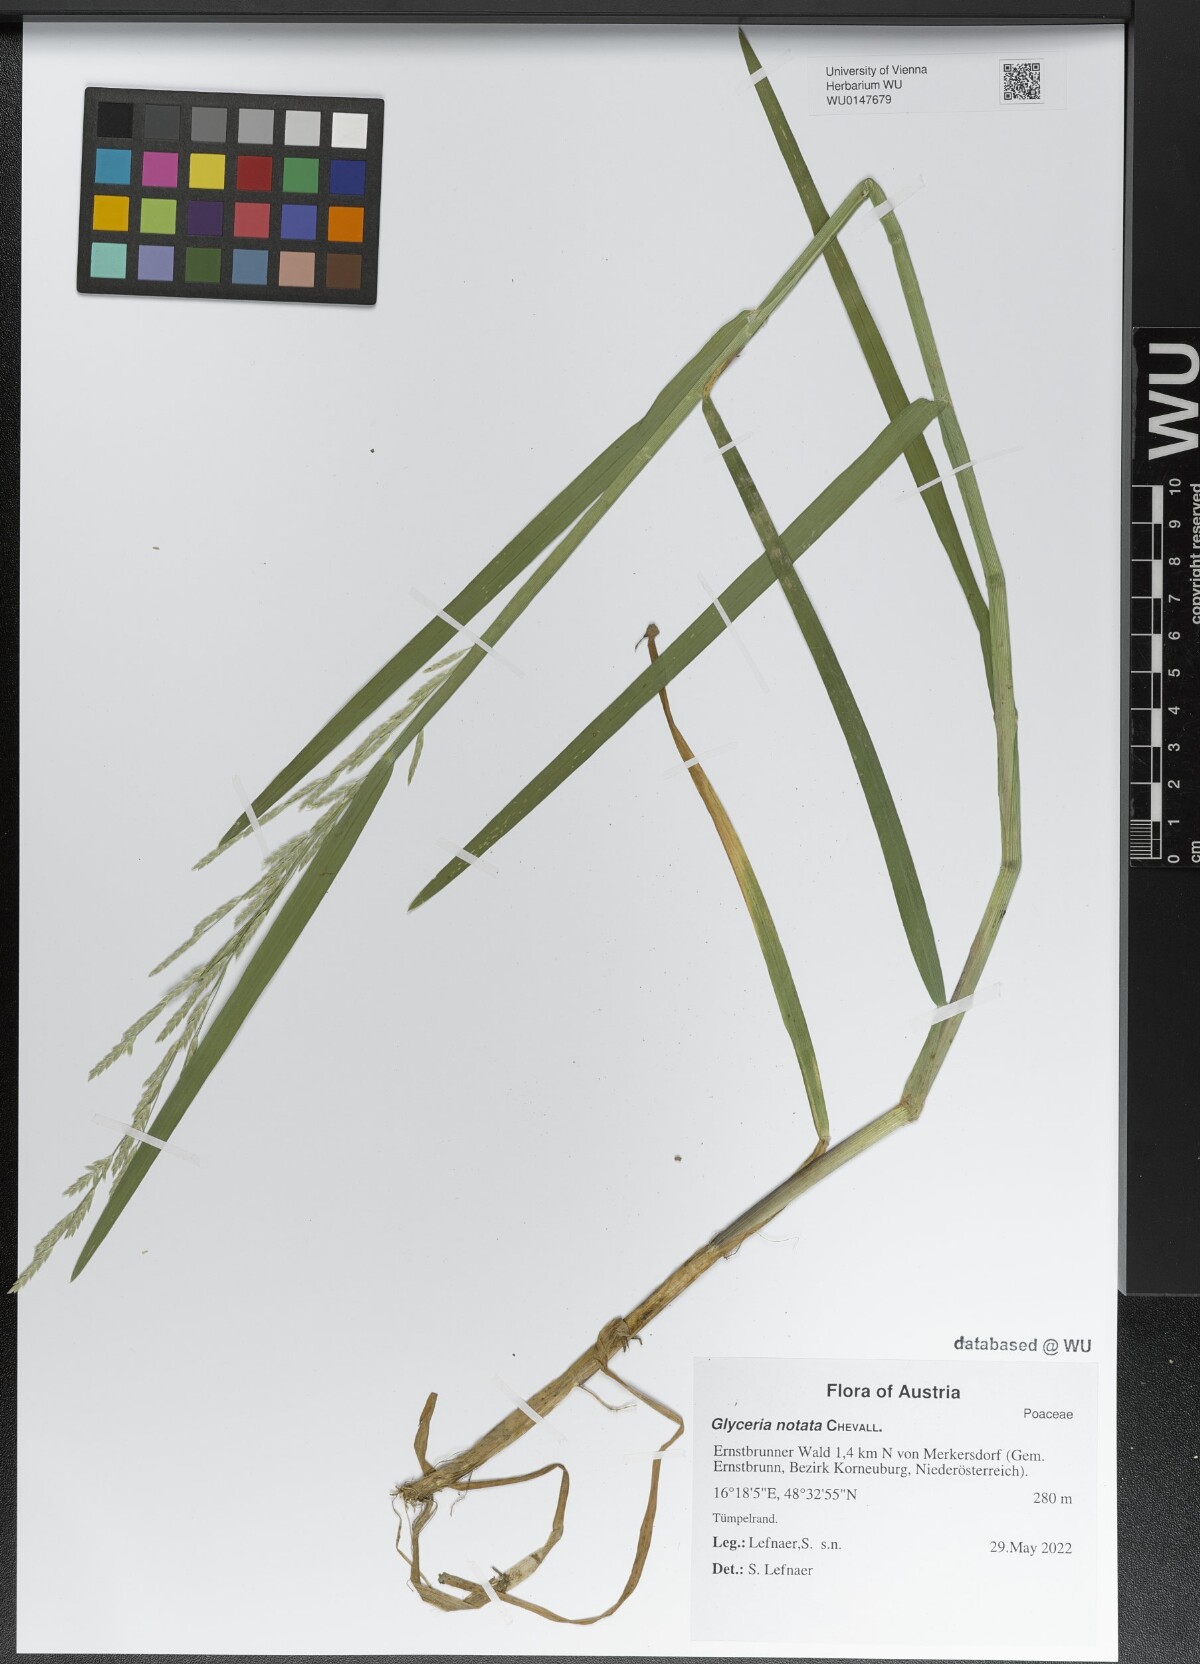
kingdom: Plantae
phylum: Tracheophyta
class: Liliopsida
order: Poales
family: Poaceae
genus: Glyceria
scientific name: Glyceria notata
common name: Plicate sweet-grass
